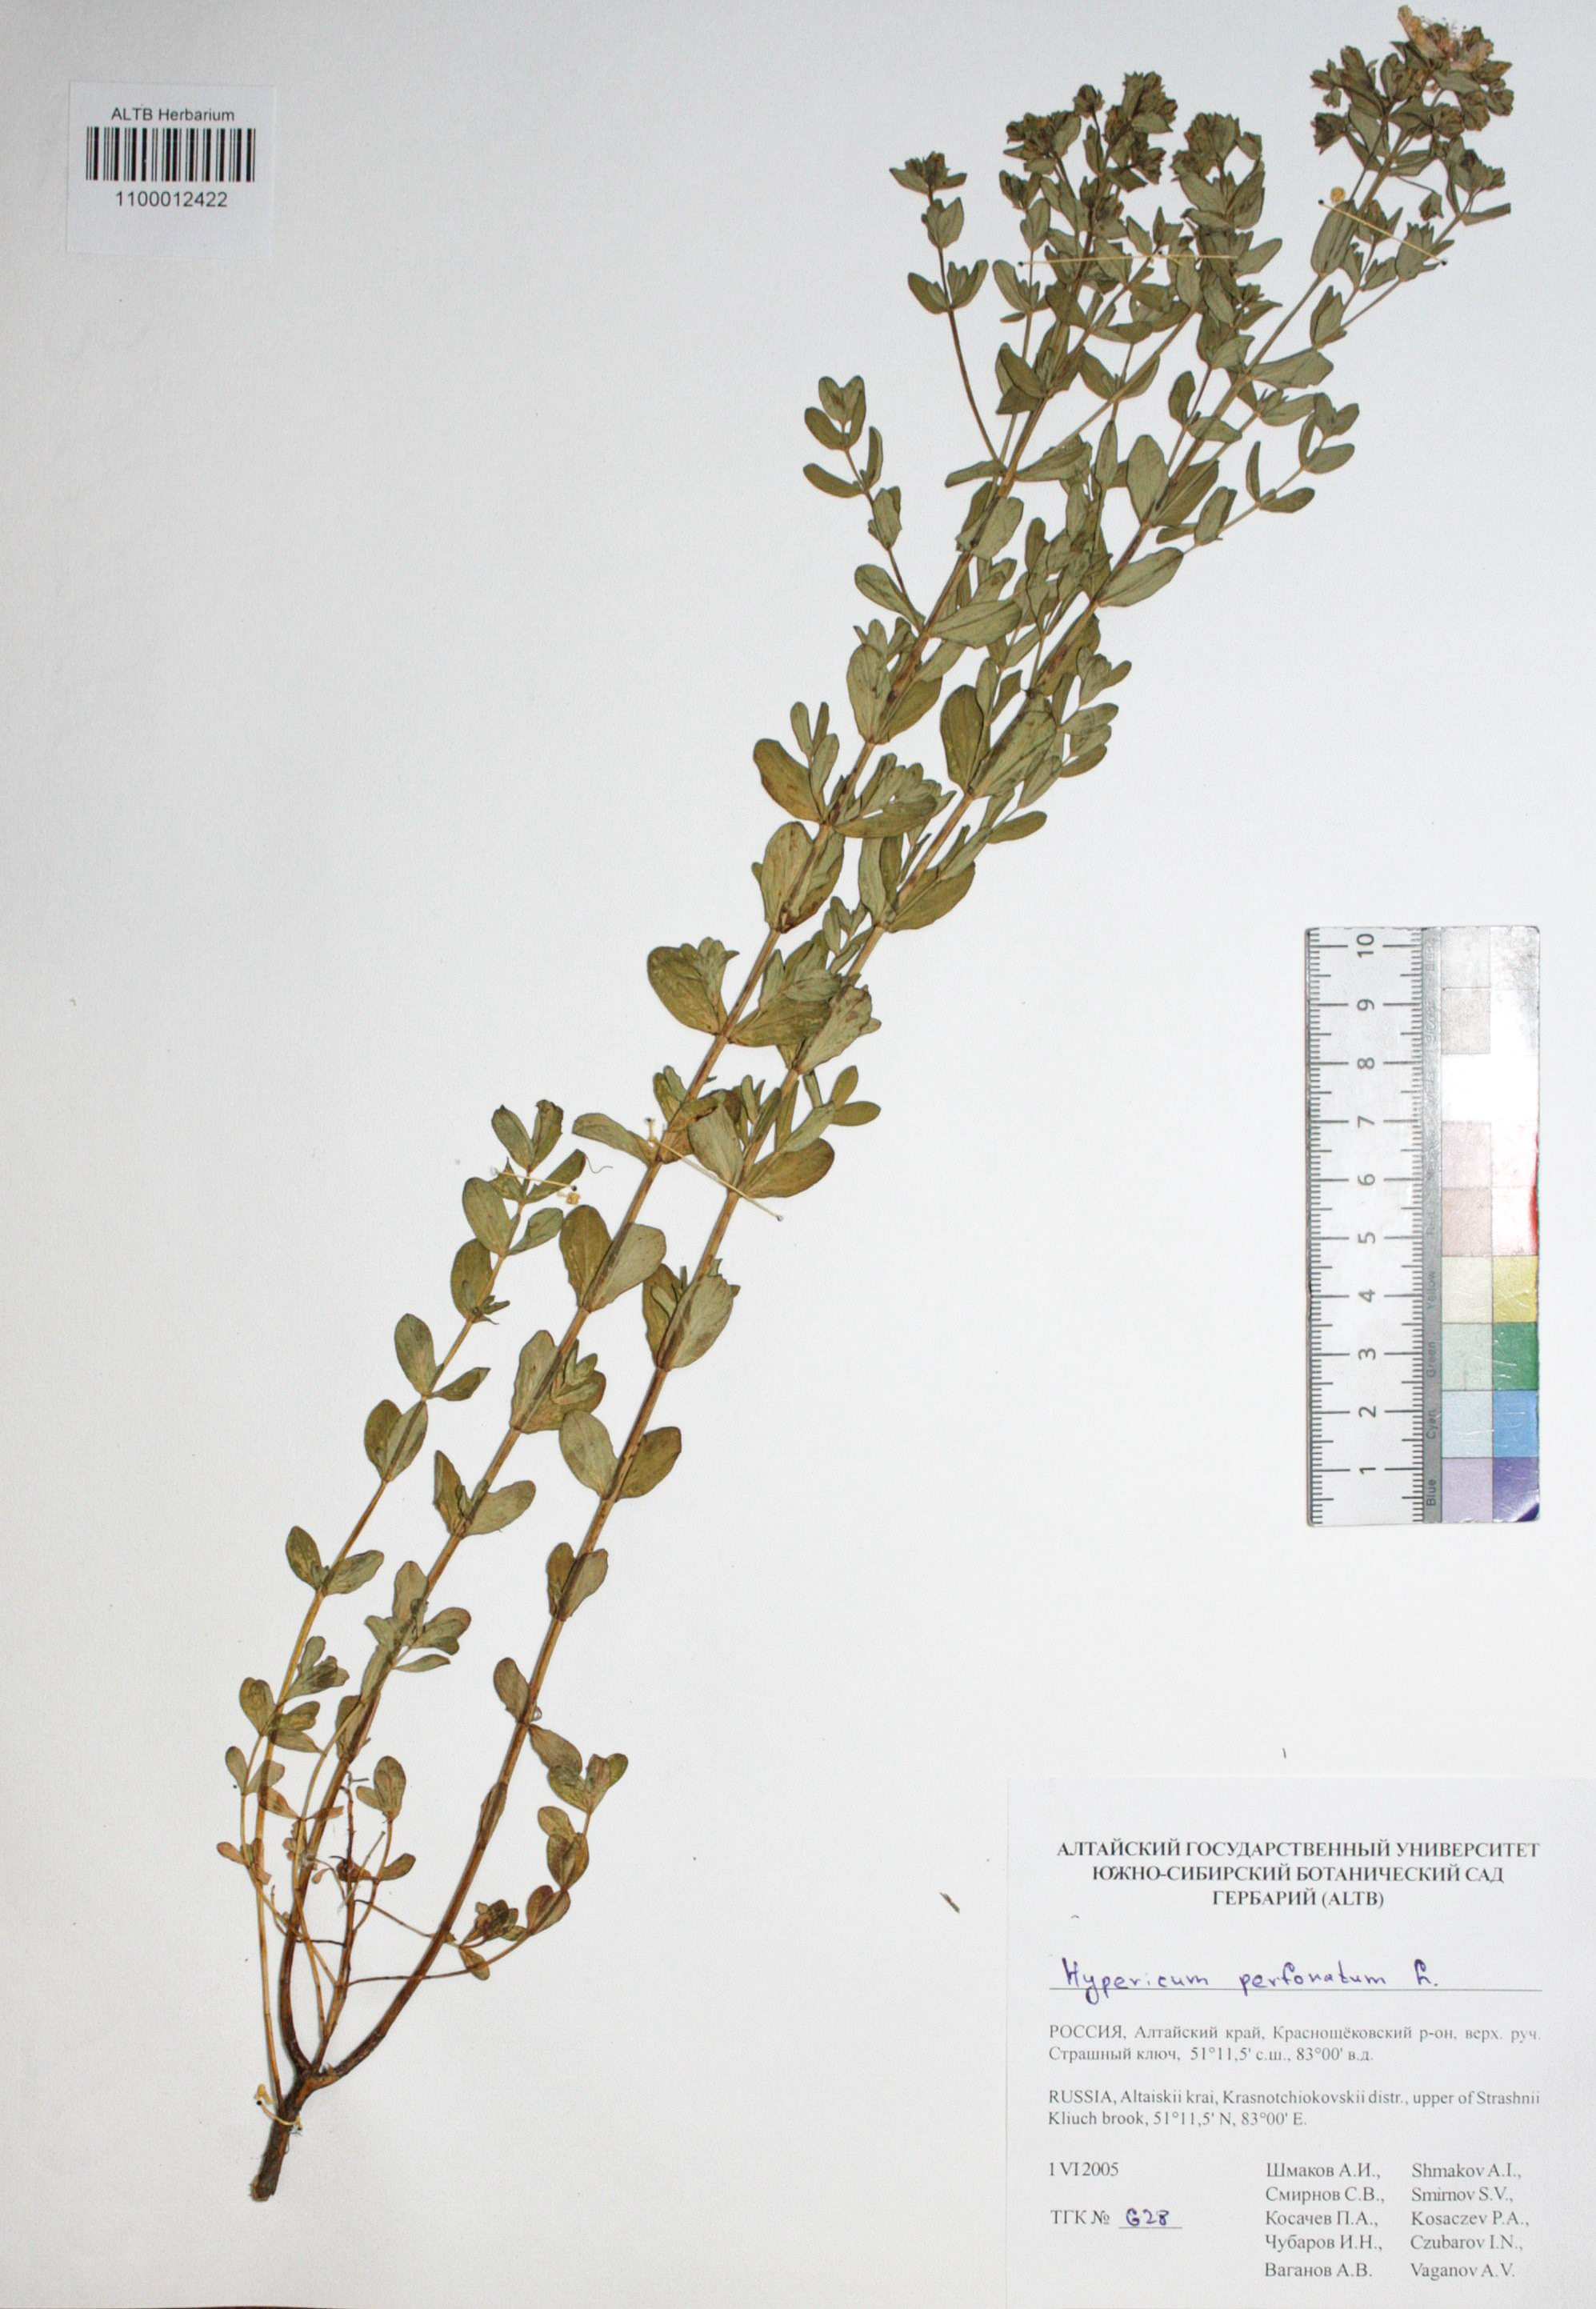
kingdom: Plantae
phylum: Tracheophyta
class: Magnoliopsida
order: Malpighiales
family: Hypericaceae
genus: Hypericum
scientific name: Hypericum perforatum
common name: Common st. johnswort
